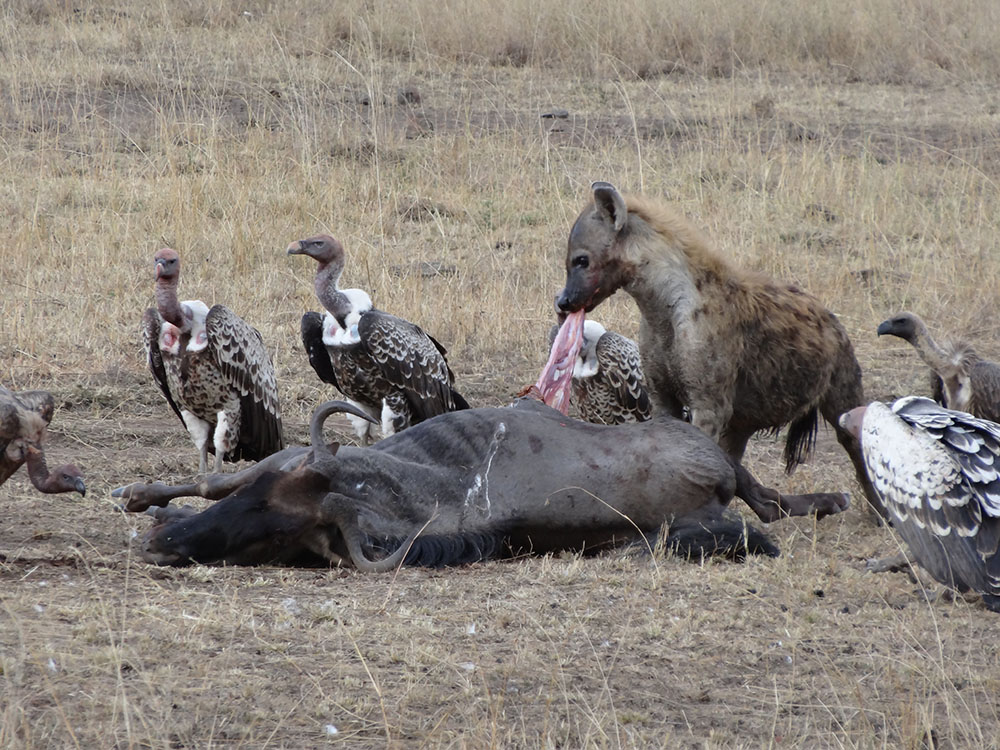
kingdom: Animalia
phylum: Chordata
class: Aves
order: Accipitriformes
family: Accipitridae
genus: Gyps
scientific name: Gyps rueppellii
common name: Rüppell's vulture
